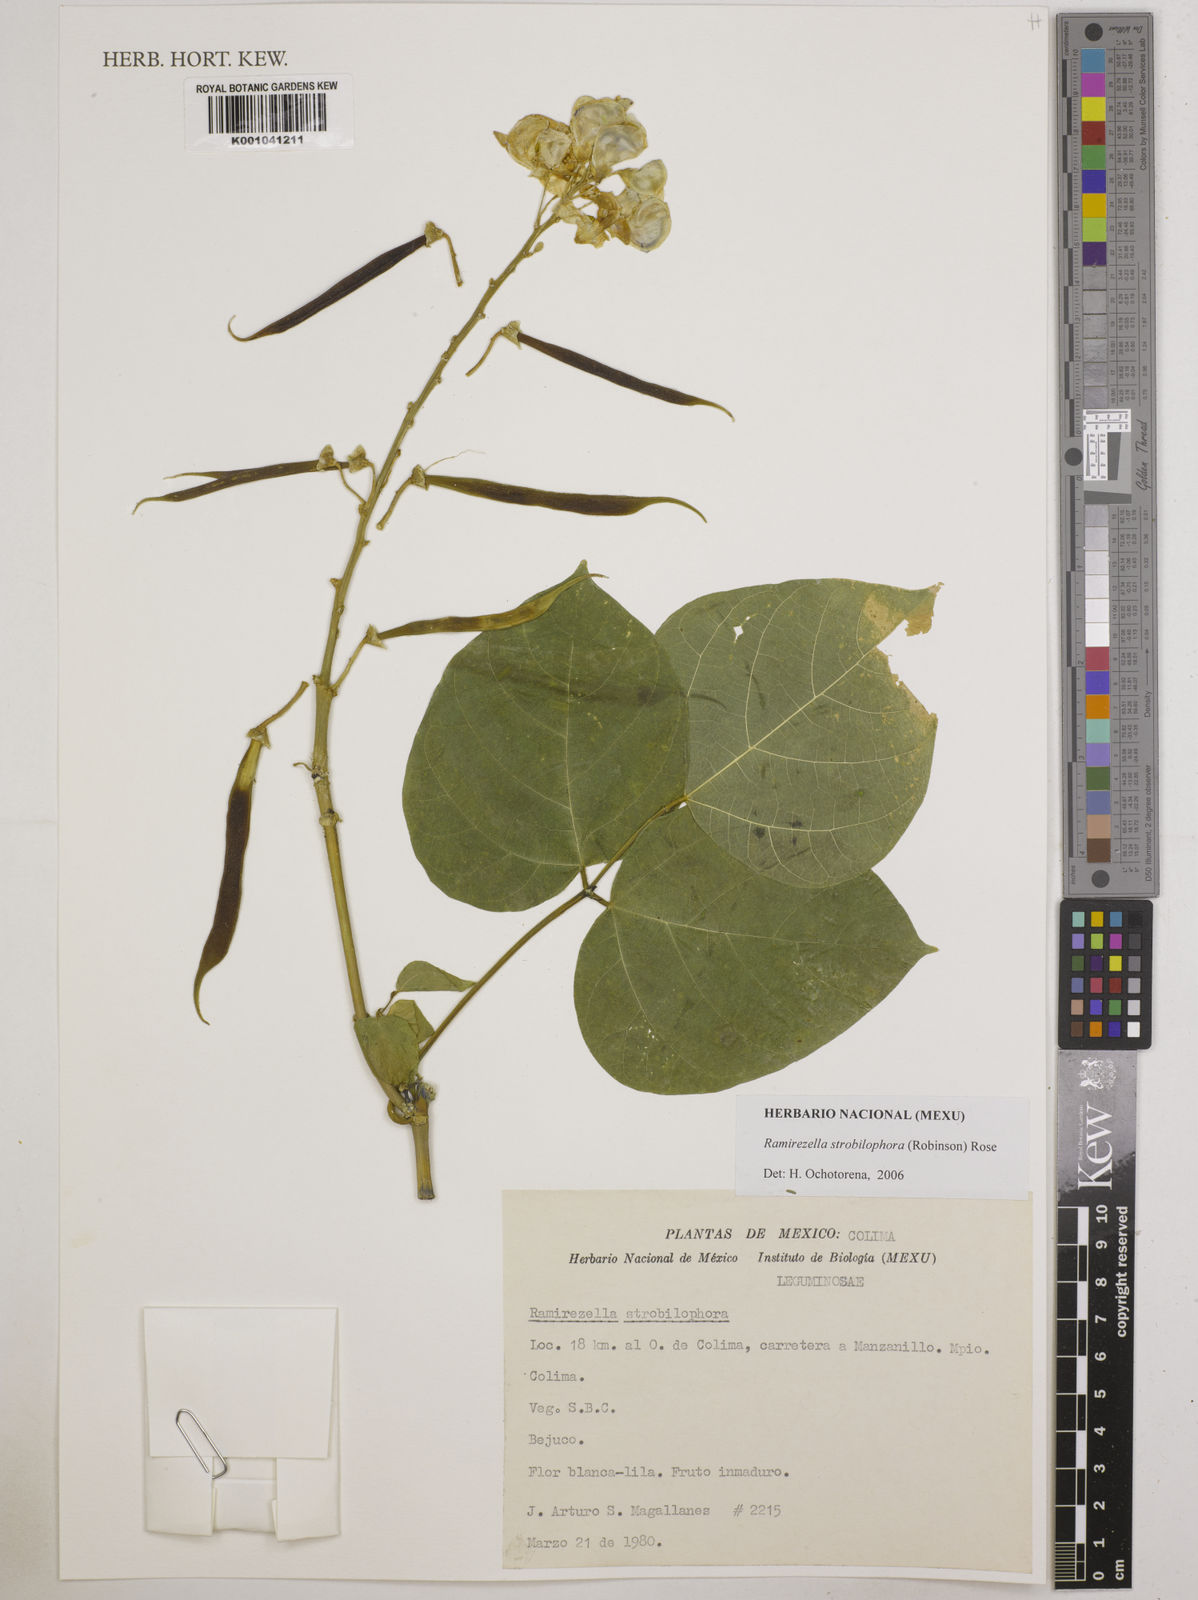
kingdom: Plantae
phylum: Tracheophyta
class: Magnoliopsida
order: Fabales
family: Fabaceae
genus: Ramirezella
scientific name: Ramirezella strobilophora
